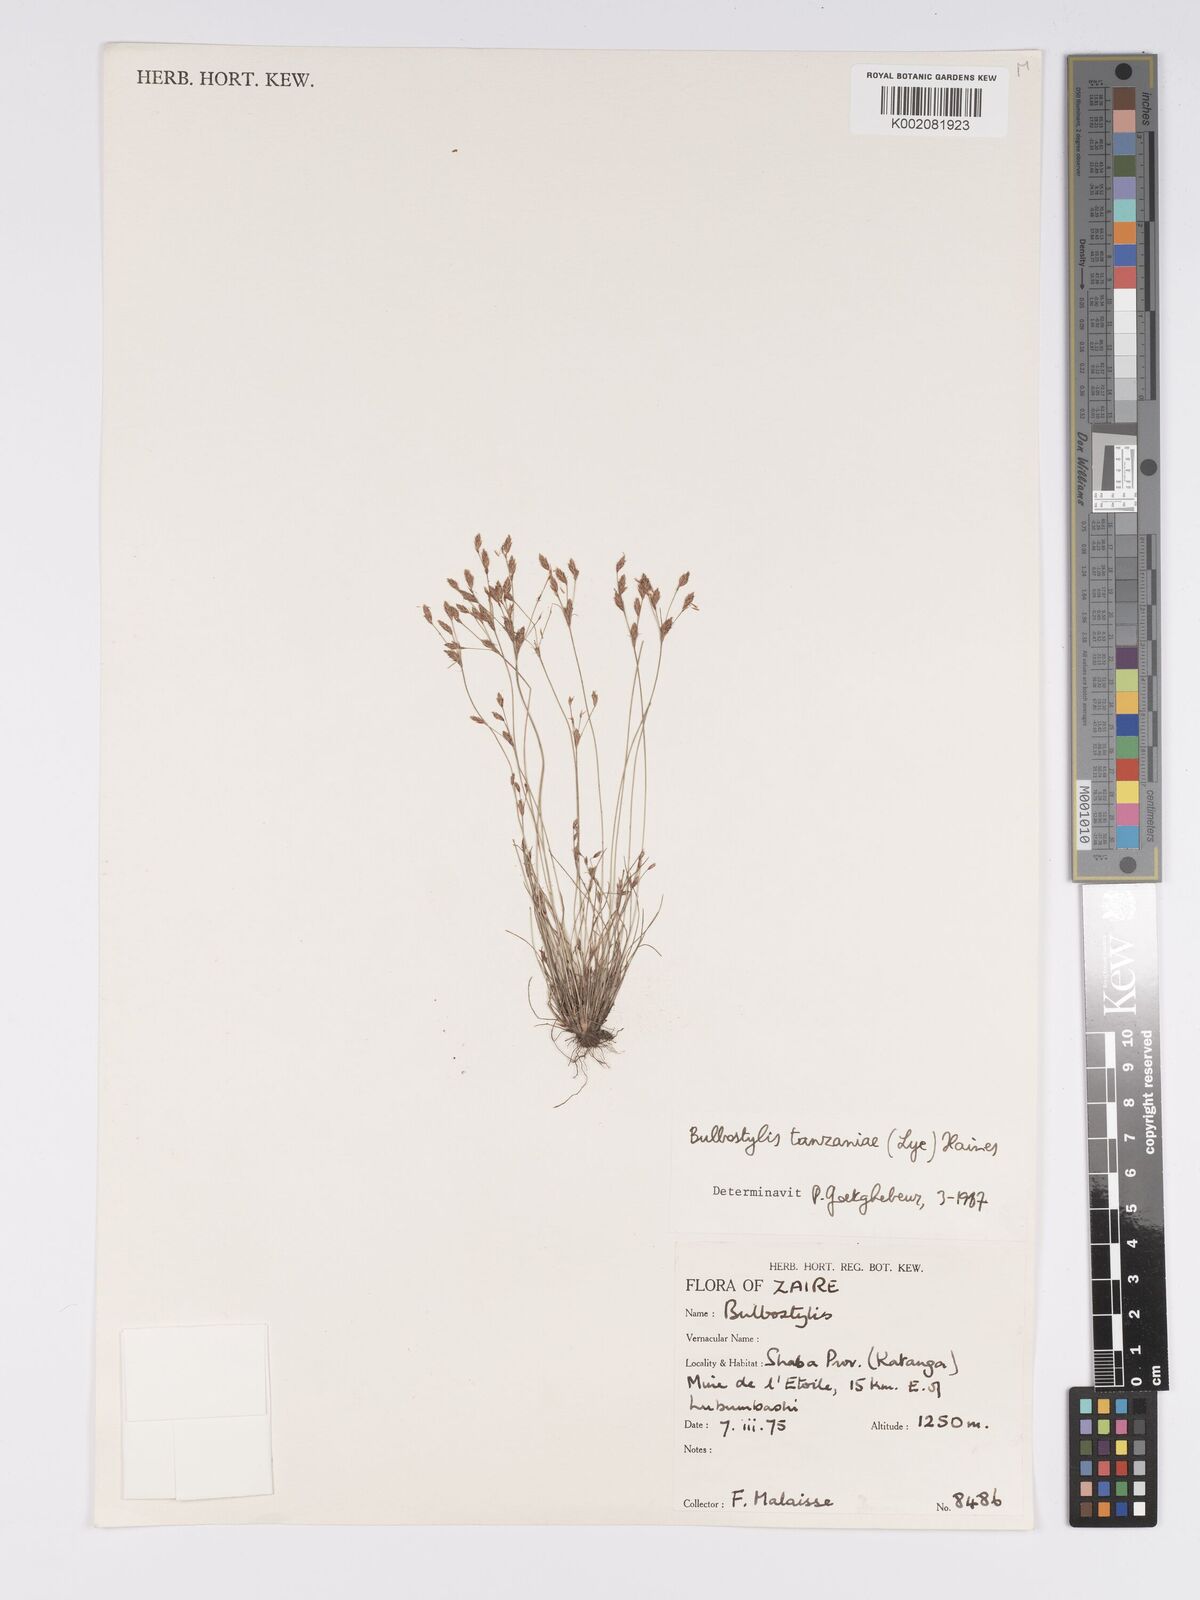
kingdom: Plantae
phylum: Tracheophyta
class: Liliopsida
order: Poales
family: Cyperaceae
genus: Bulbostylis
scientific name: Bulbostylis tanzaniae
